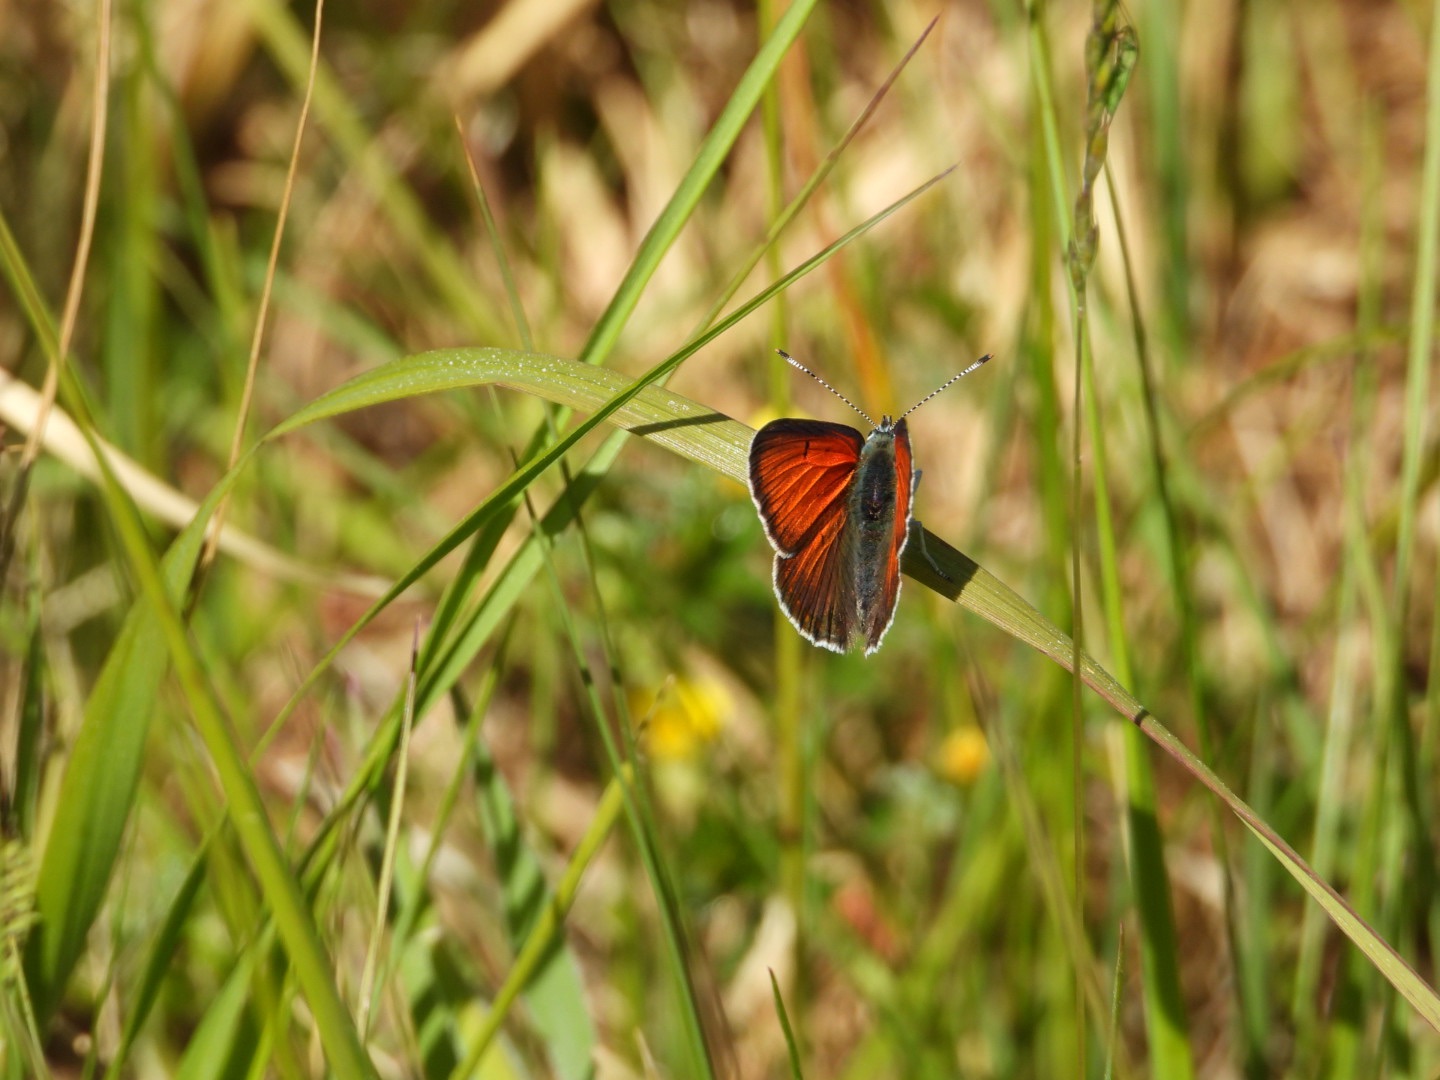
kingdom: Animalia
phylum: Arthropoda
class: Insecta
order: Lepidoptera
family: Lycaenidae
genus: Palaeochrysophanus
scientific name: Palaeochrysophanus hippothoe
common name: Violetrandet ildfugl
